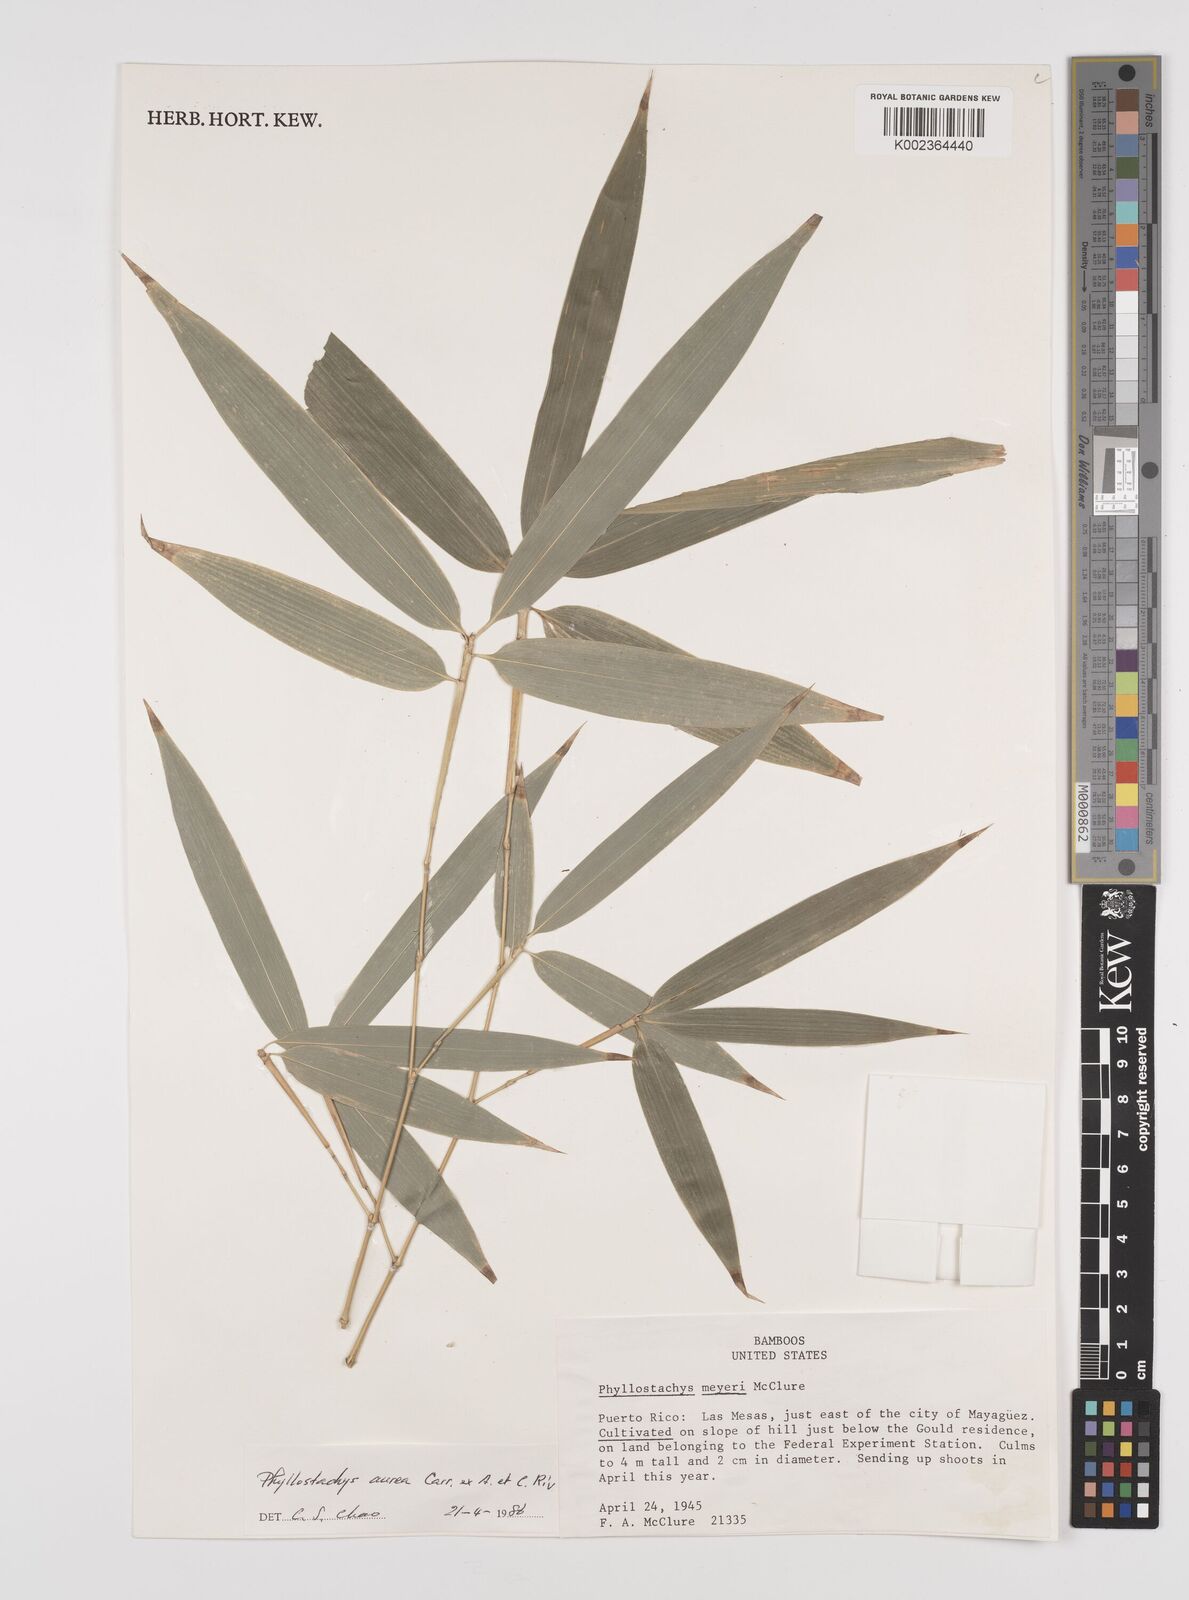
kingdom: Plantae
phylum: Tracheophyta
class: Liliopsida
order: Poales
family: Poaceae
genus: Phyllostachys
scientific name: Phyllostachys aurea
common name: Golden bamboo
